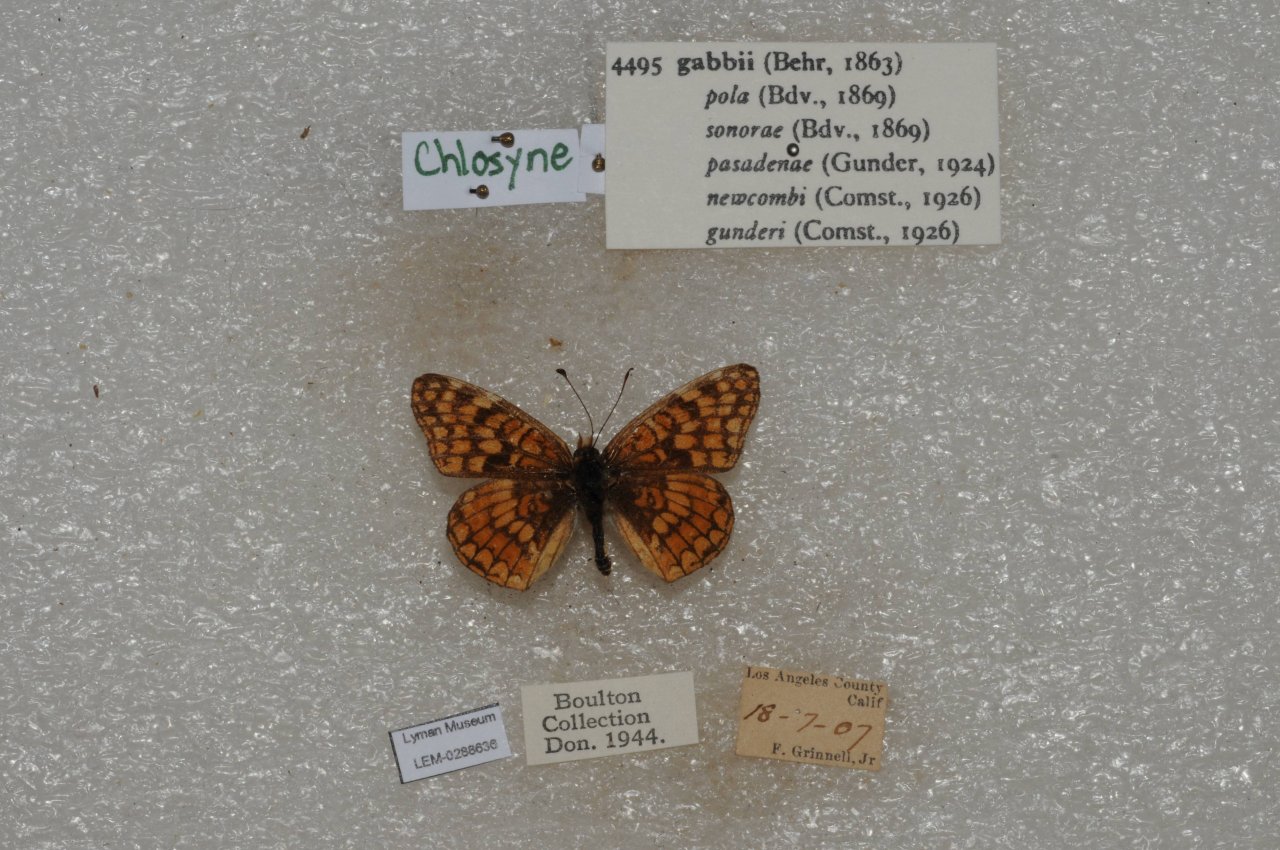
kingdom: Animalia
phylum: Arthropoda
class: Insecta
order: Lepidoptera
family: Nymphalidae
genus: Chlosyne
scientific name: Chlosyne gabbii
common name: Gabb's Checkerspot
